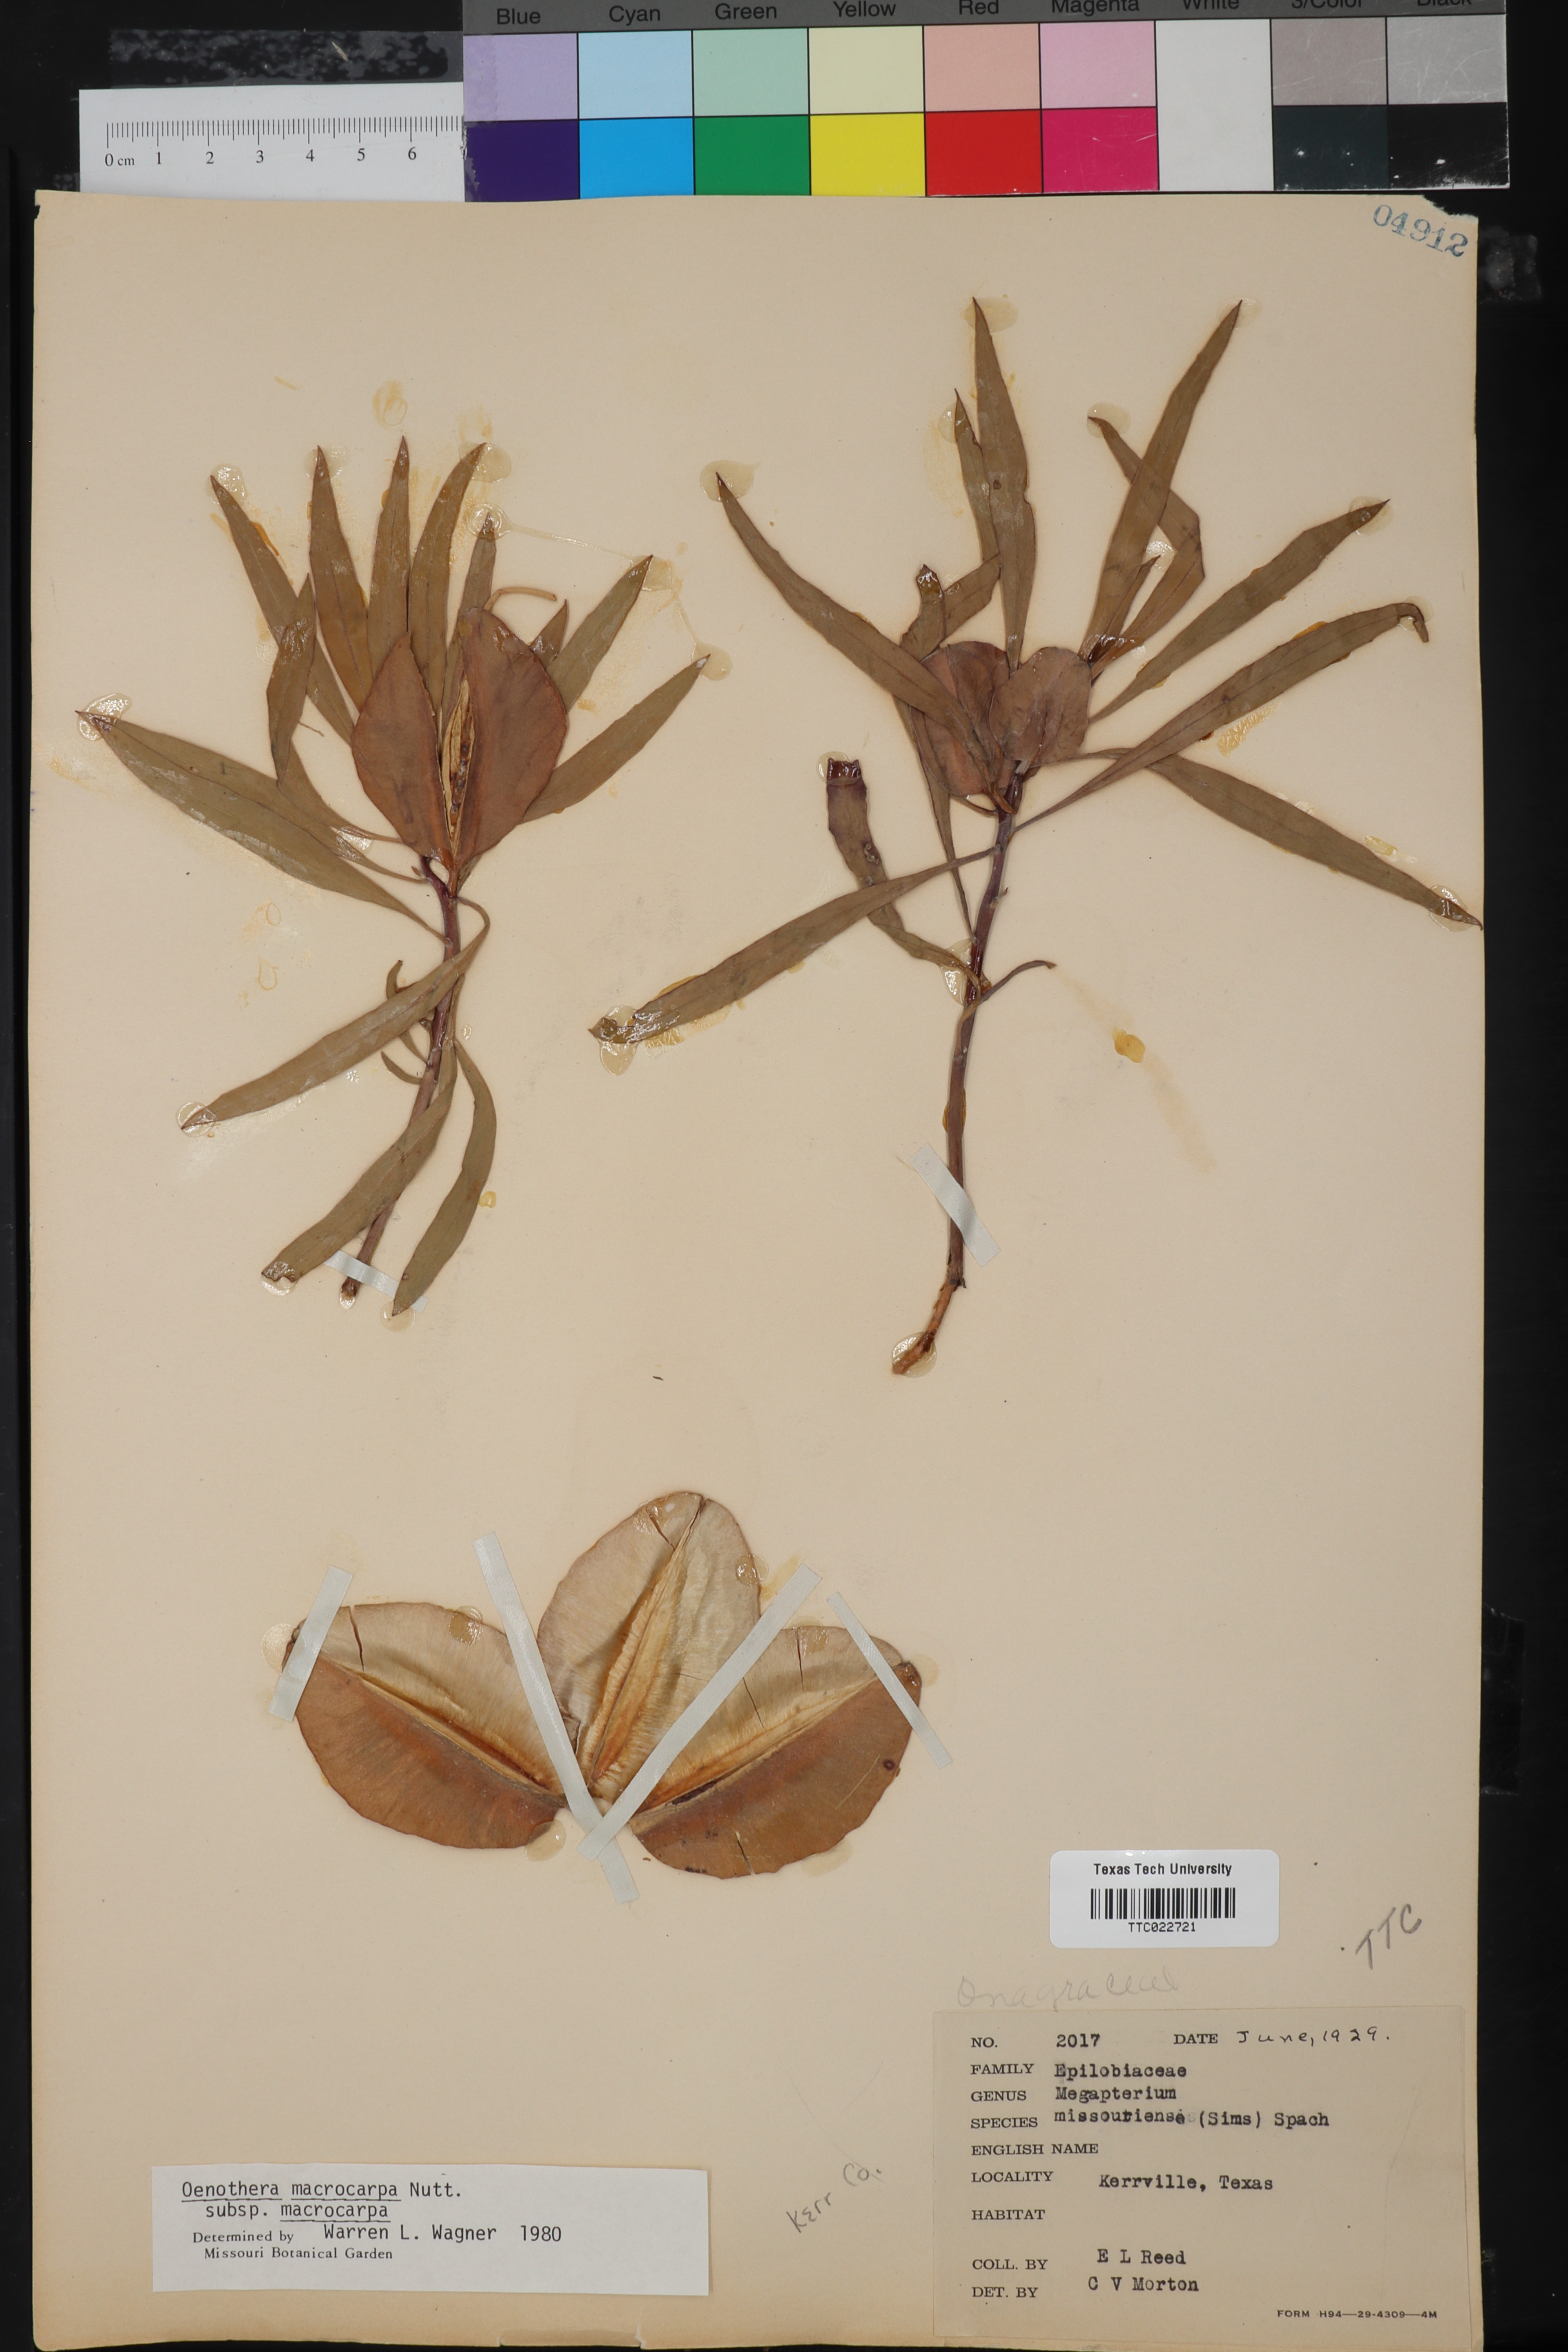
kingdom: Plantae
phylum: Tracheophyta
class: Magnoliopsida
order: Myrtales
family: Onagraceae
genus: Oenothera
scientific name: Oenothera macrocarpa
